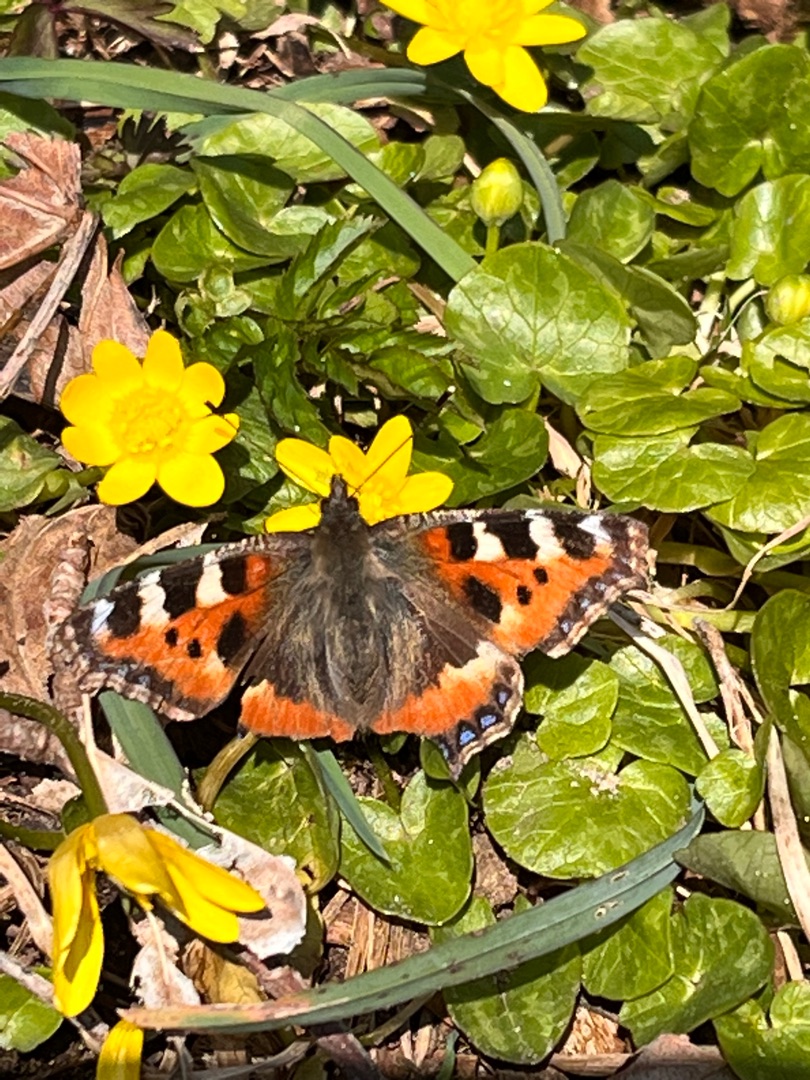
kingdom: Animalia
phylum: Arthropoda
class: Insecta
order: Lepidoptera
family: Nymphalidae
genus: Aglais
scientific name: Aglais urticae
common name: Nældens takvinge
